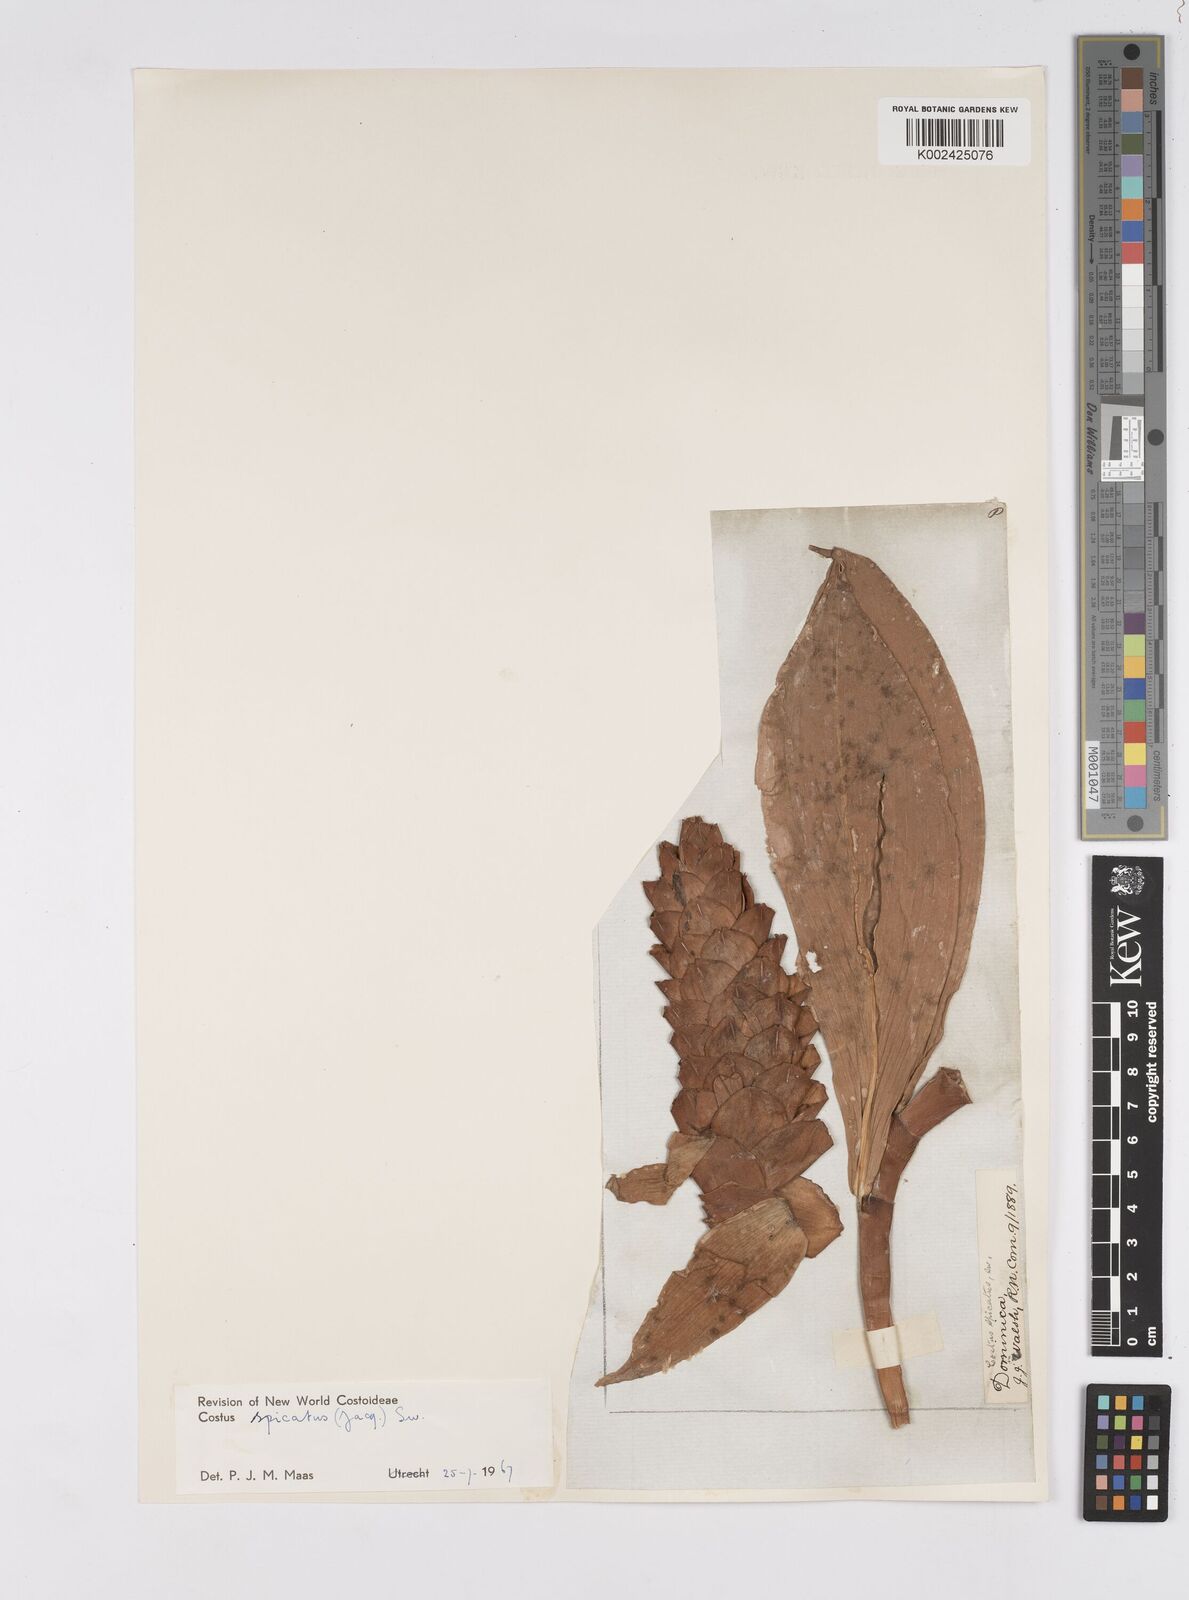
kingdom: Plantae
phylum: Tracheophyta
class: Liliopsida
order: Zingiberales
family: Costaceae
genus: Costus
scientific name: Costus spicatus
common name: Spiked spiral-flag
